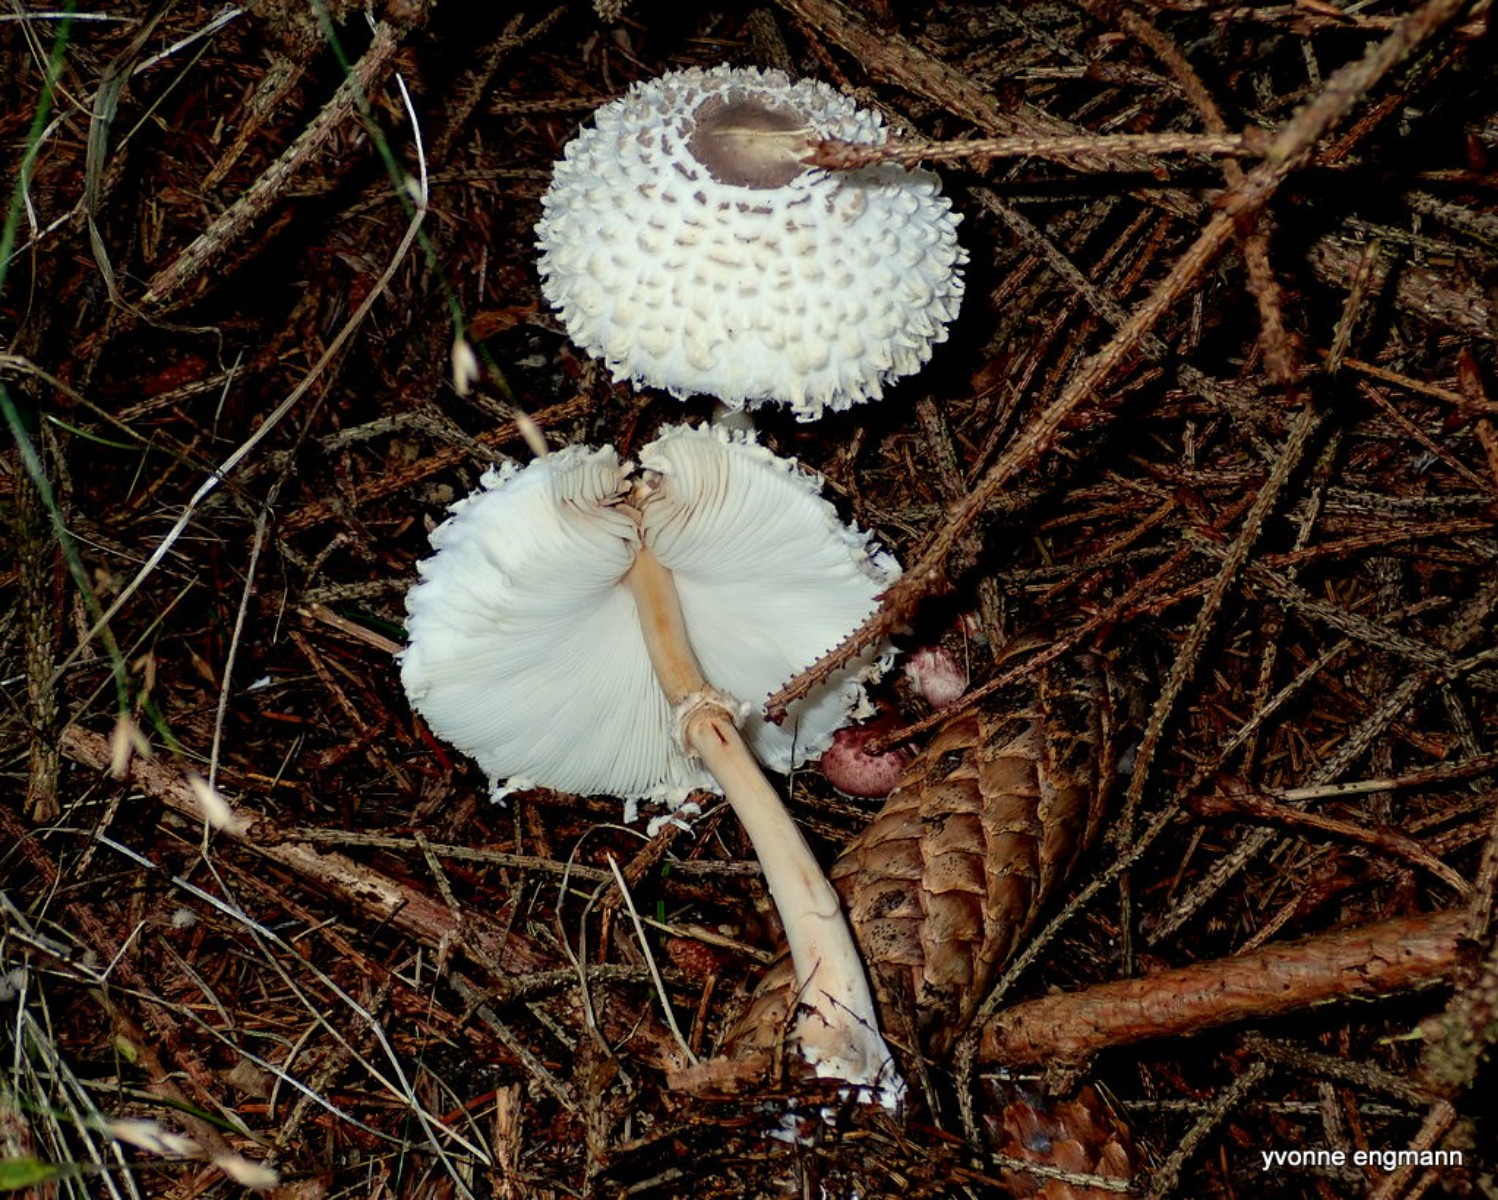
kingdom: Fungi
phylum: Basidiomycota
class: Agaricomycetes
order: Agaricales
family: Agaricaceae
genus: Leucoagaricus
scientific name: Leucoagaricus nympharum
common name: gran-silkehat
